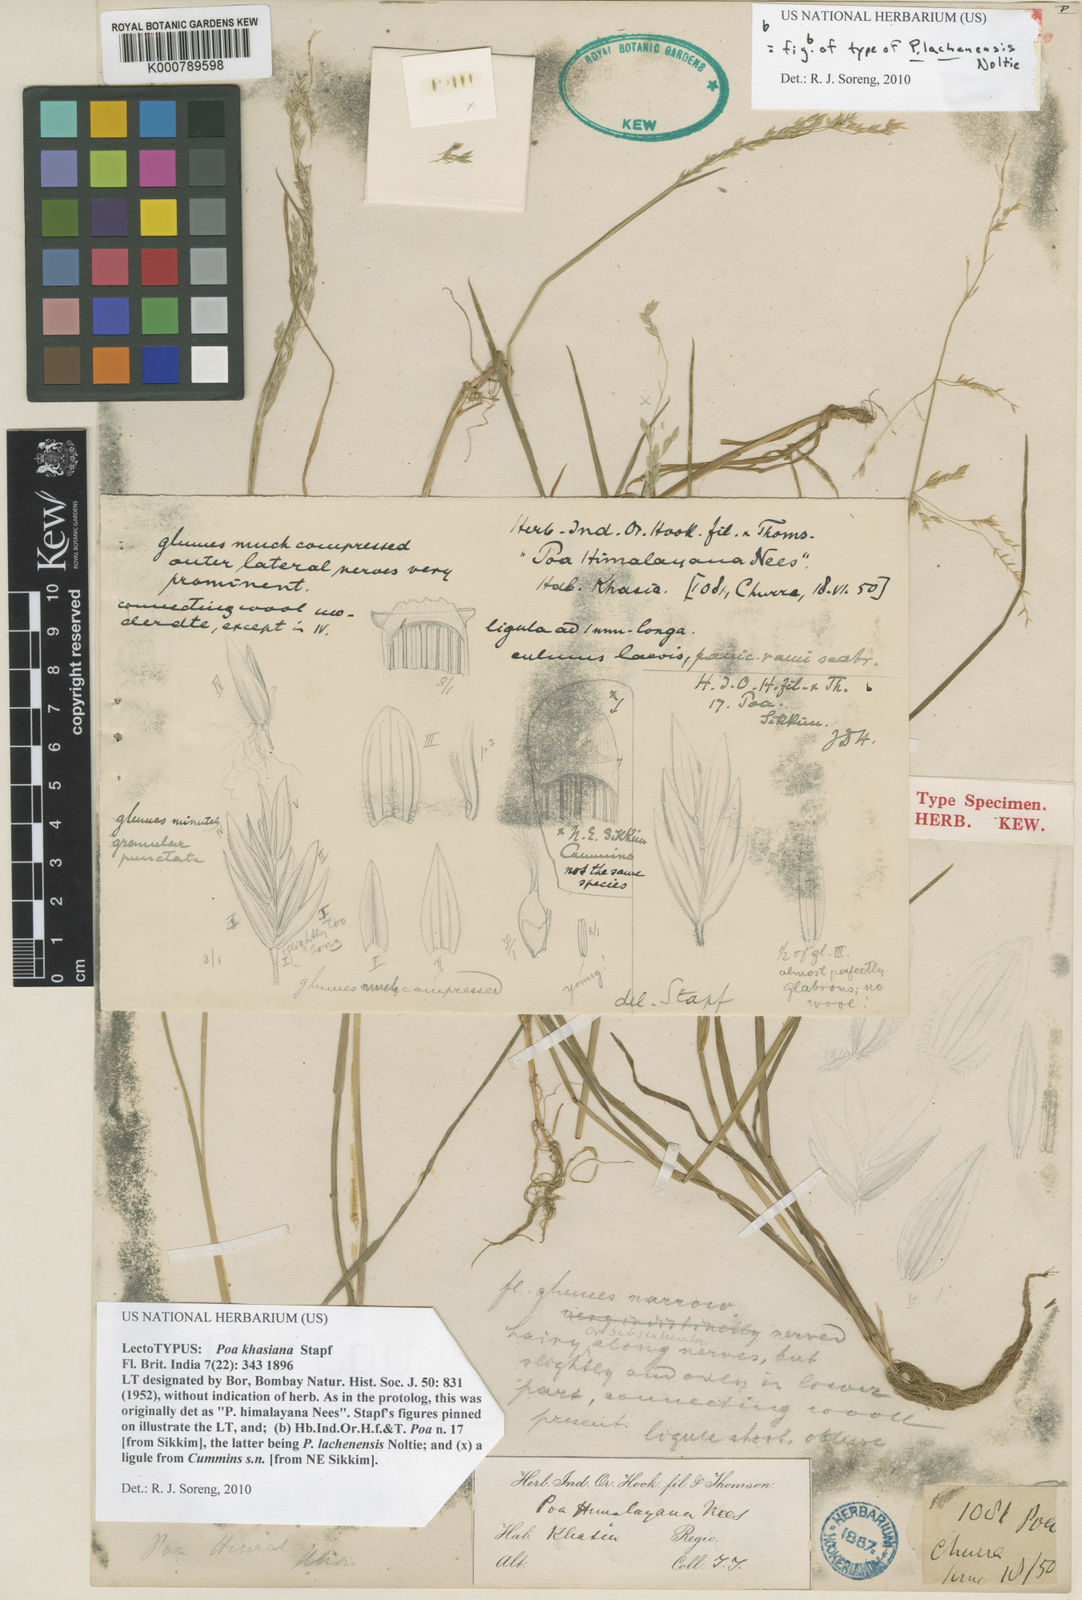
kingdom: Plantae
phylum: Tracheophyta
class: Liliopsida
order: Poales
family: Poaceae
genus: Poa
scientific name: Poa khasiana
